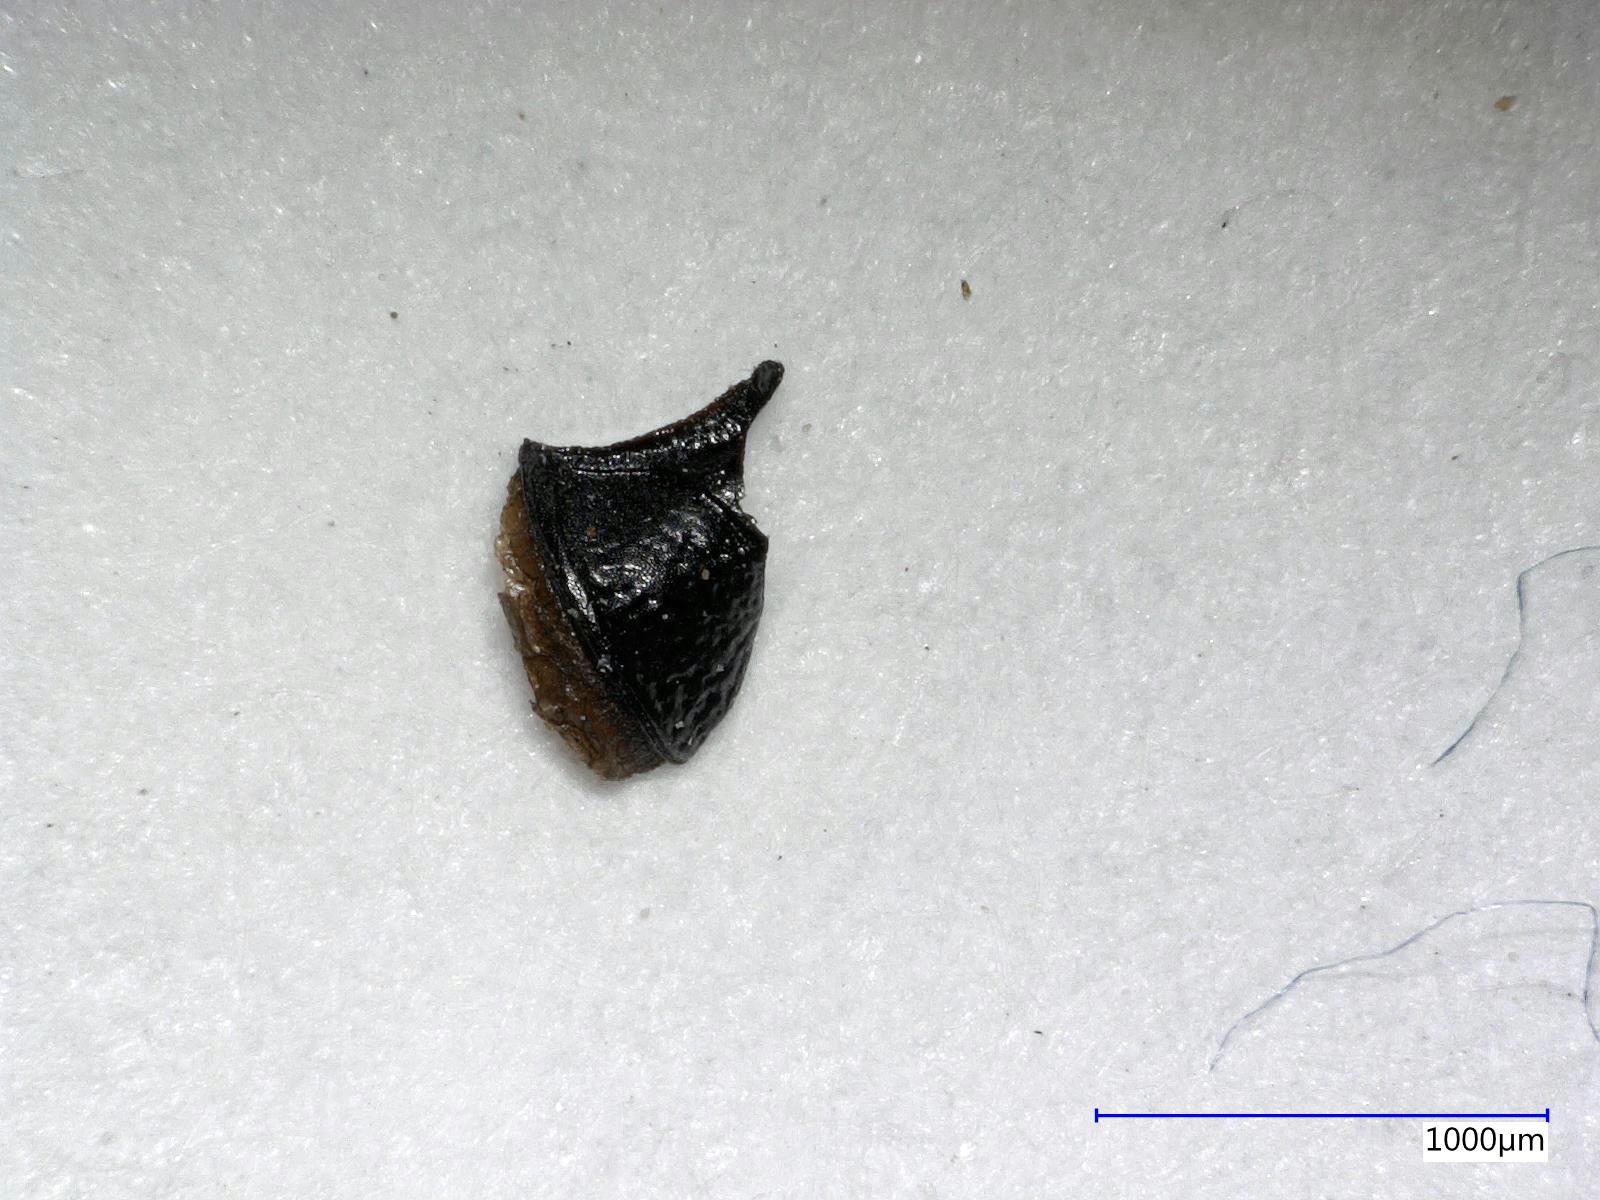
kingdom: Animalia
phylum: Arthropoda
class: Insecta
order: Coleoptera
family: Carabidae
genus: Dicheirus
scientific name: Dicheirus piceus
